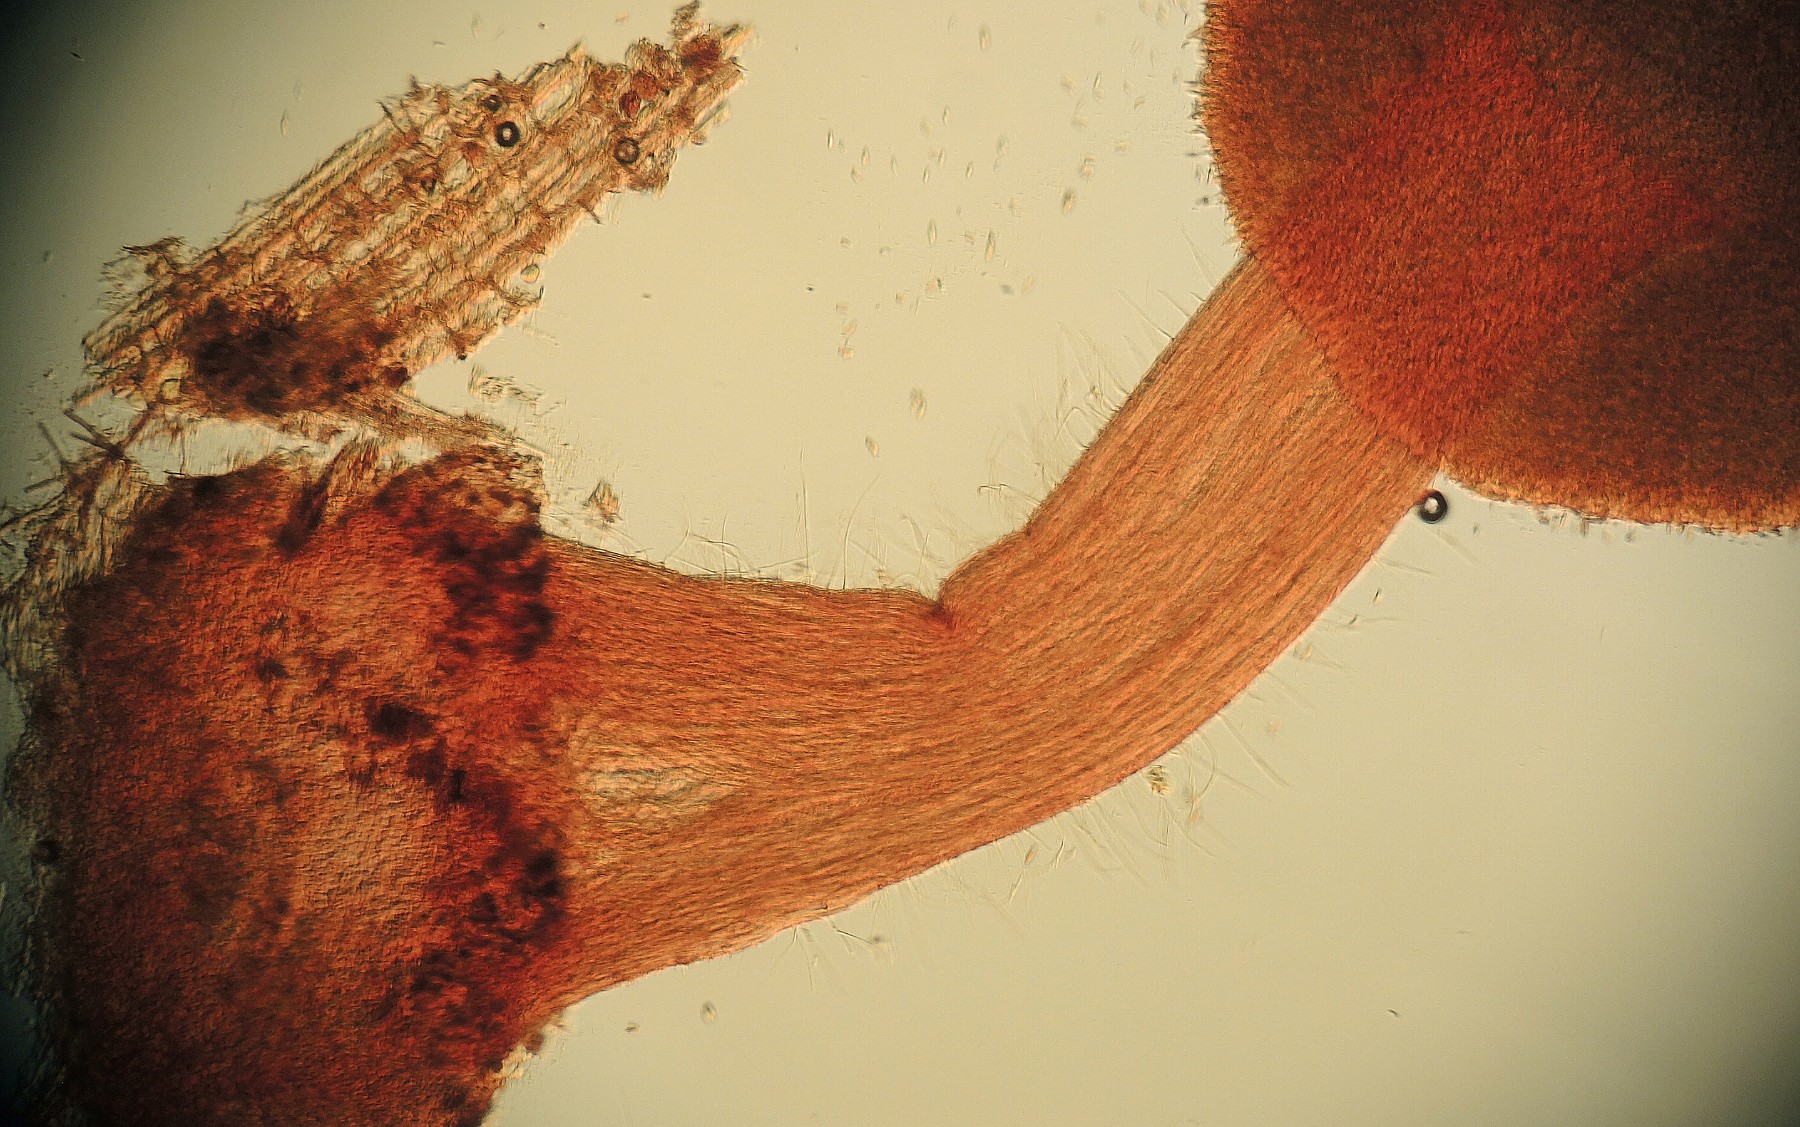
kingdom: Fungi
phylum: Basidiomycota
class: Agaricomycetes
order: Agaricales
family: Typhulaceae
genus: Typhula
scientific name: Typhula
